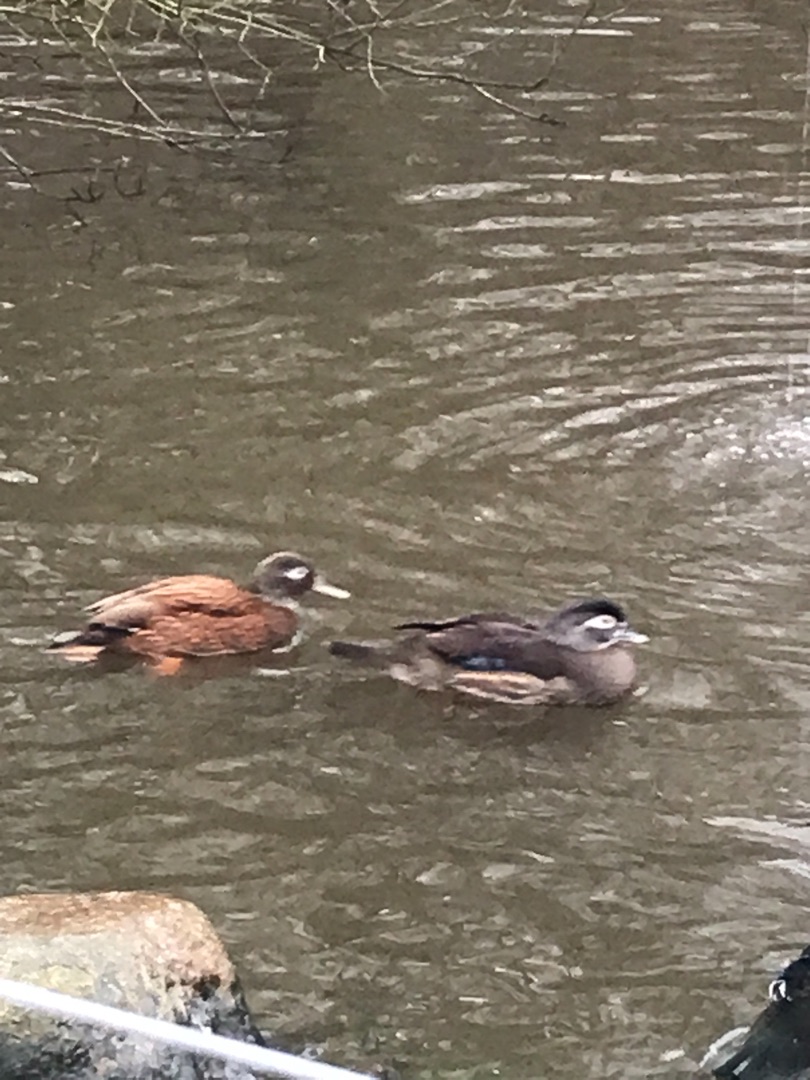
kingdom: Animalia
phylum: Chordata
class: Aves
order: Anseriformes
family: Anatidae
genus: Aix
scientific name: Aix sponsa
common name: Brudeand
